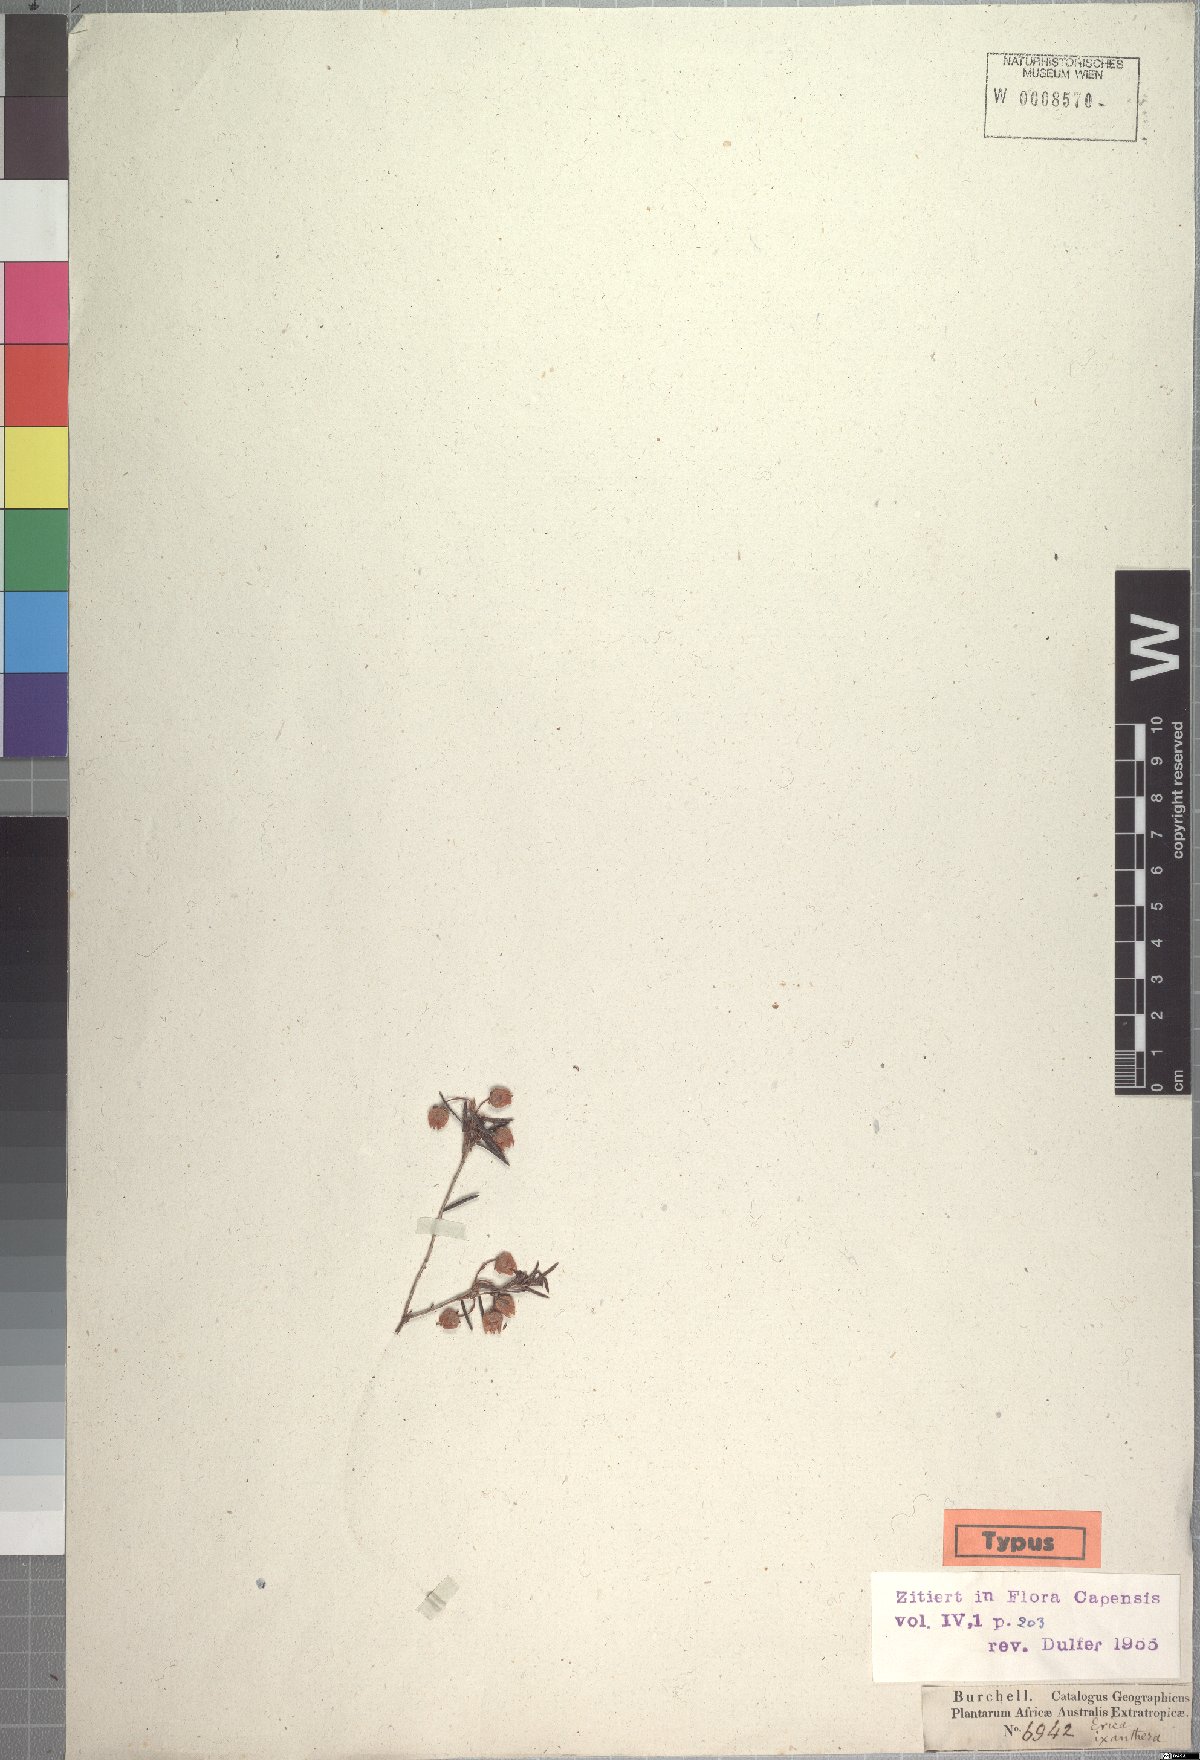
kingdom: Plantae
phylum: Tracheophyta
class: Magnoliopsida
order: Ericales
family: Ericaceae
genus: Erica
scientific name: Erica ixanthera
